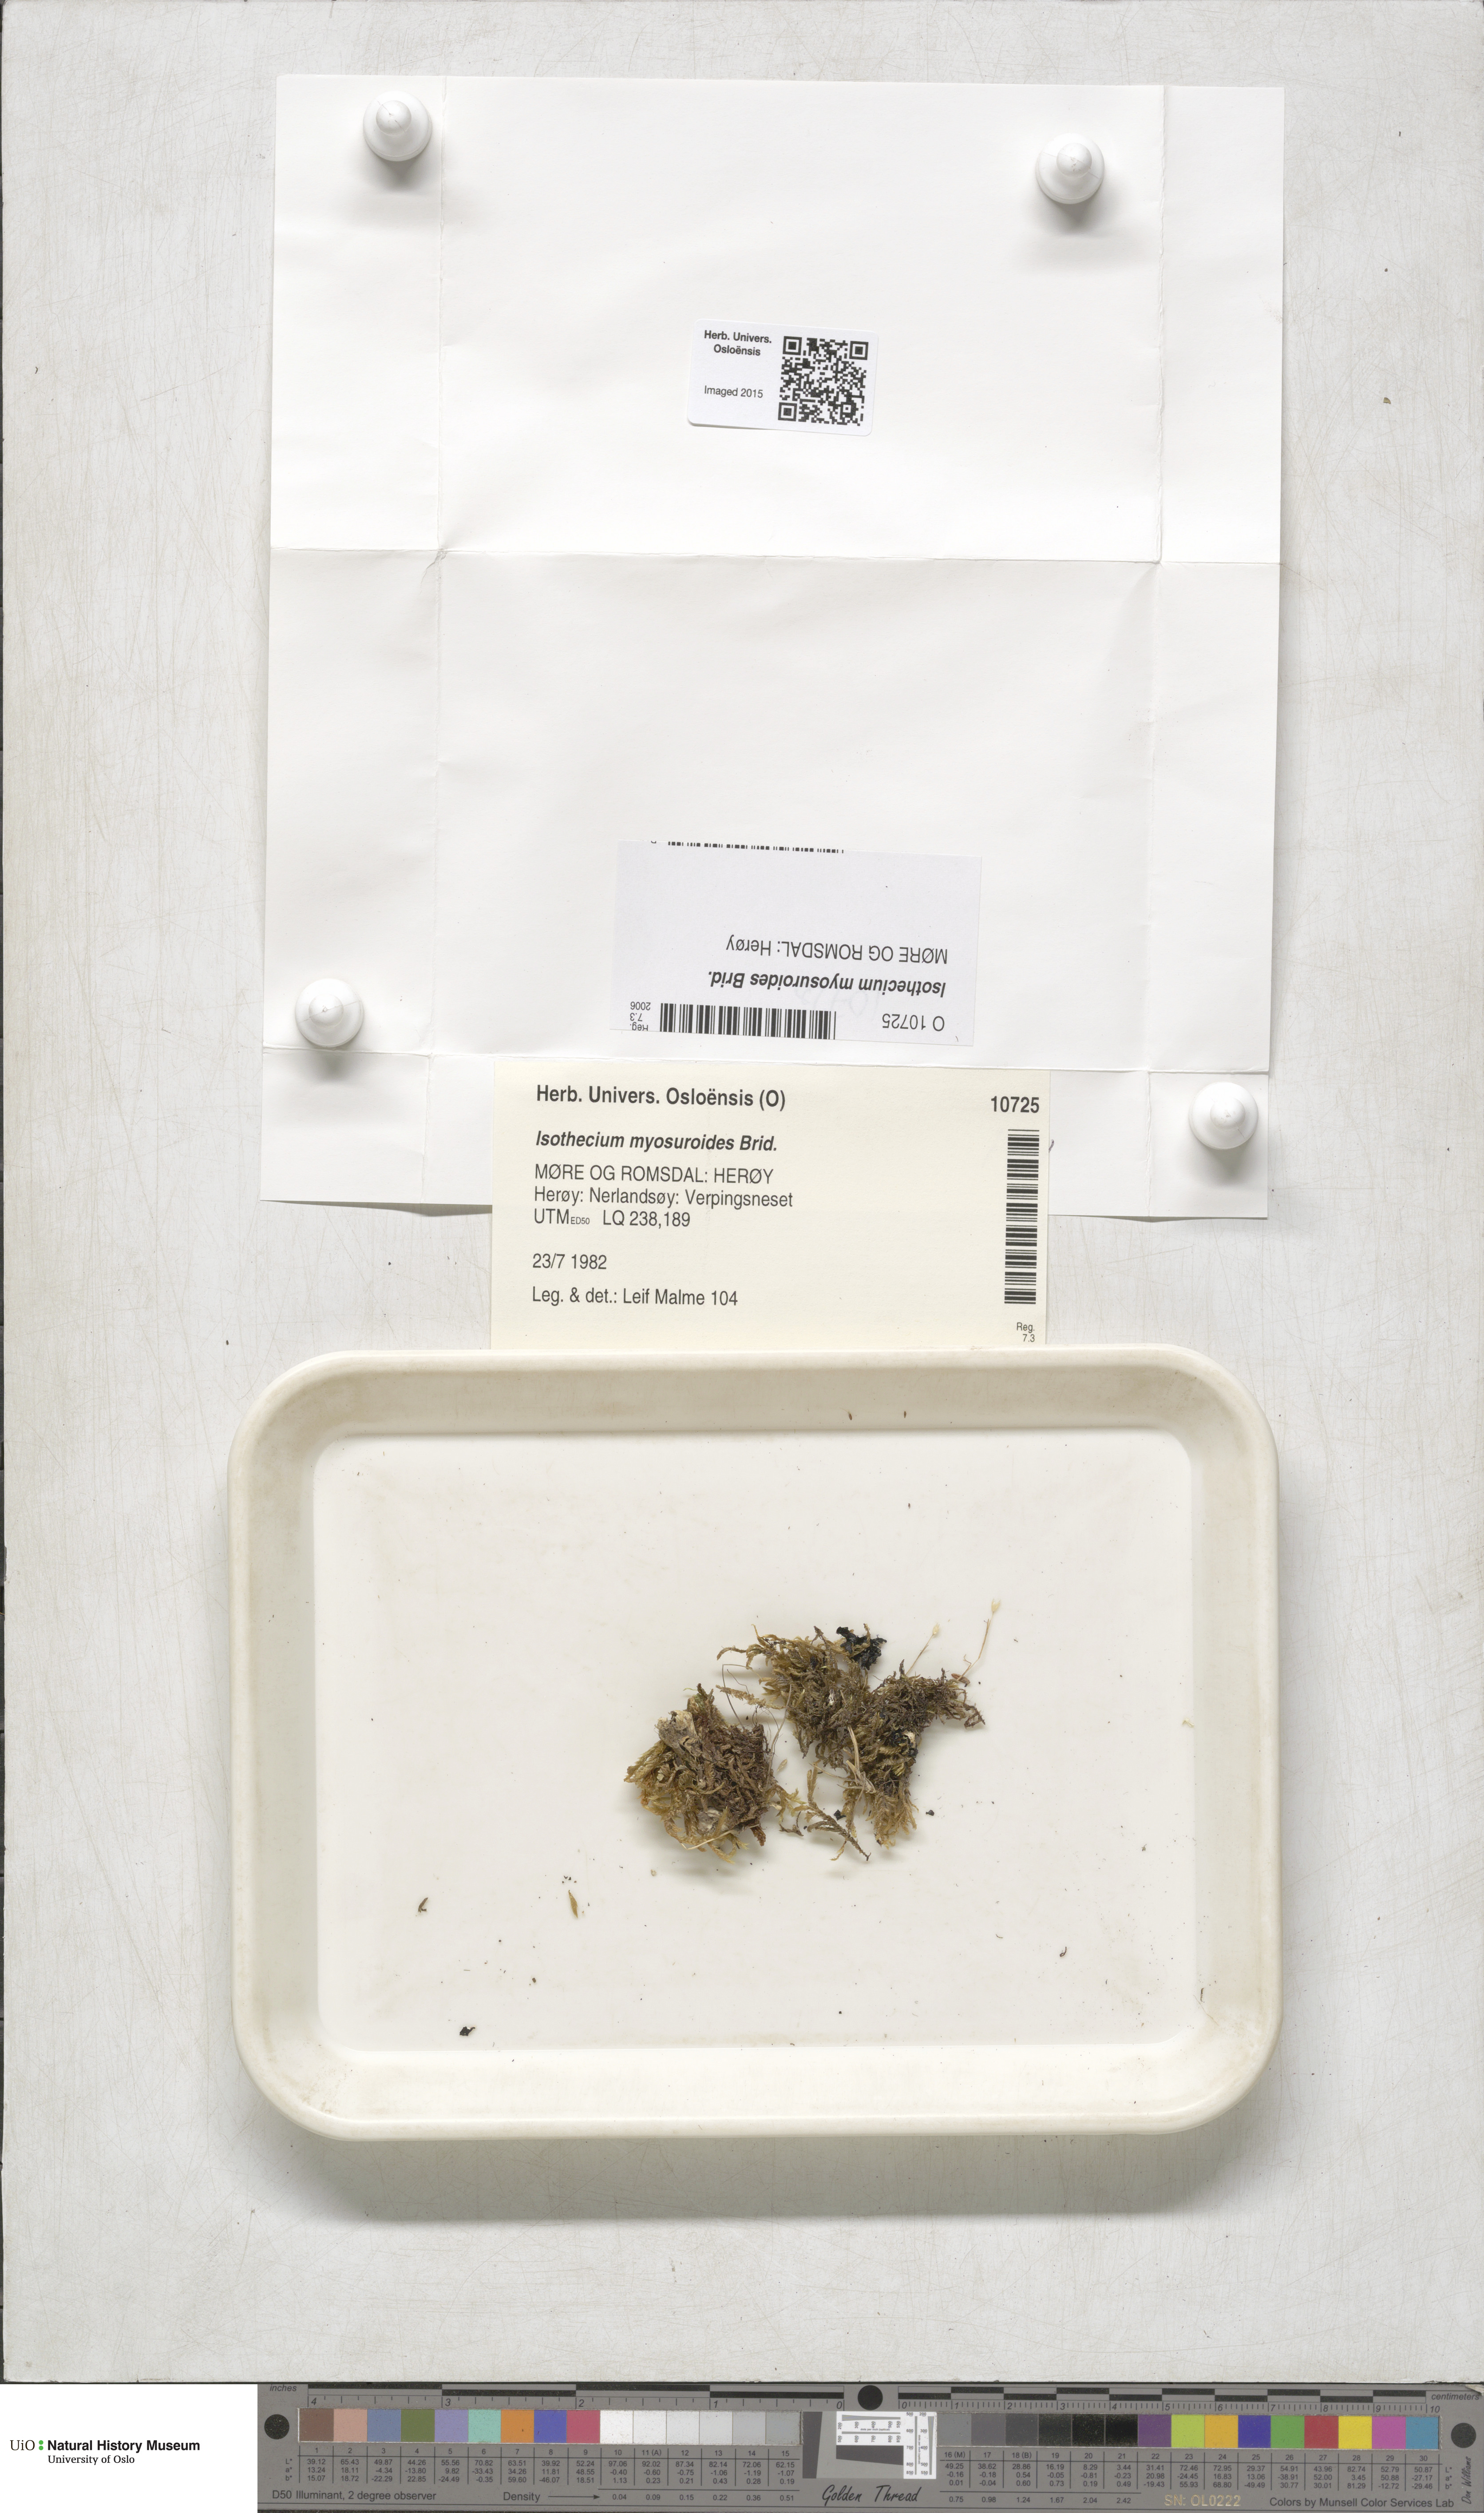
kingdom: Plantae
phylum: Bryophyta
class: Bryopsida
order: Hypnales
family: Lembophyllaceae
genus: Pseudisothecium
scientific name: Pseudisothecium myosuroides
